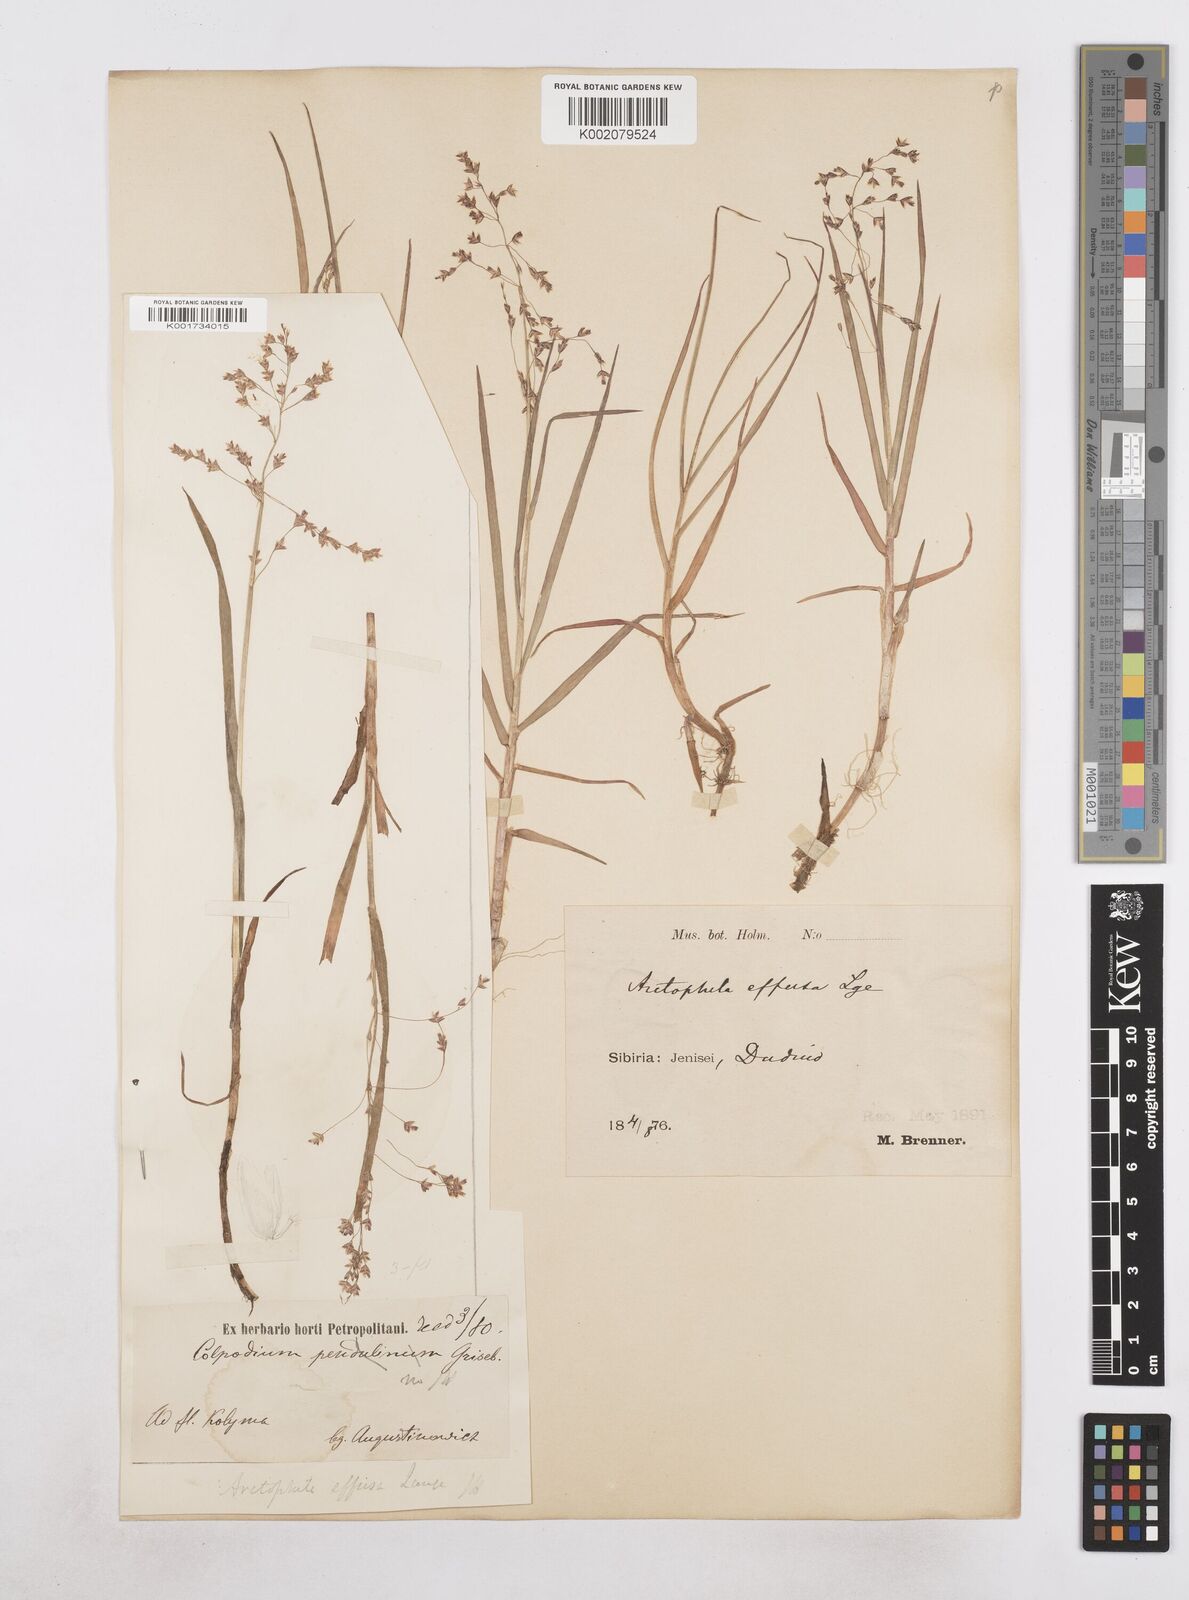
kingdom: Plantae
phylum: Tracheophyta
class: Liliopsida
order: Poales
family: Poaceae
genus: Dupontia
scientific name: Dupontia fulva
